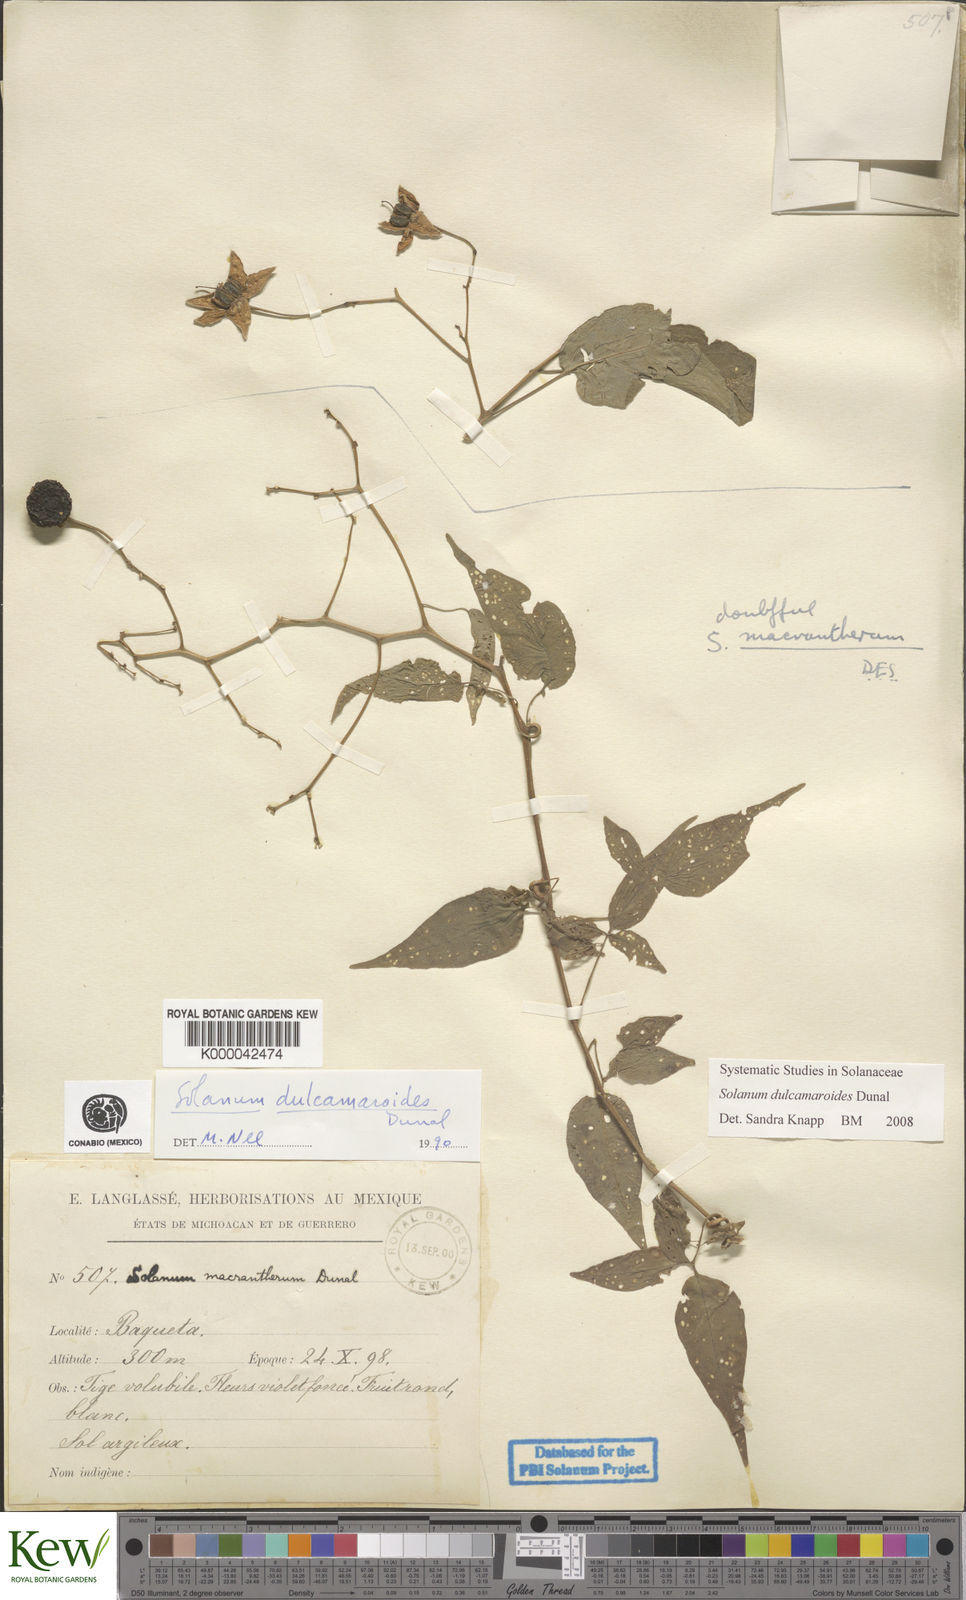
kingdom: Plantae
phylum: Tracheophyta
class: Magnoliopsida
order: Solanales
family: Solanaceae
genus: Solanum
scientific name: Solanum dulcamaroides
